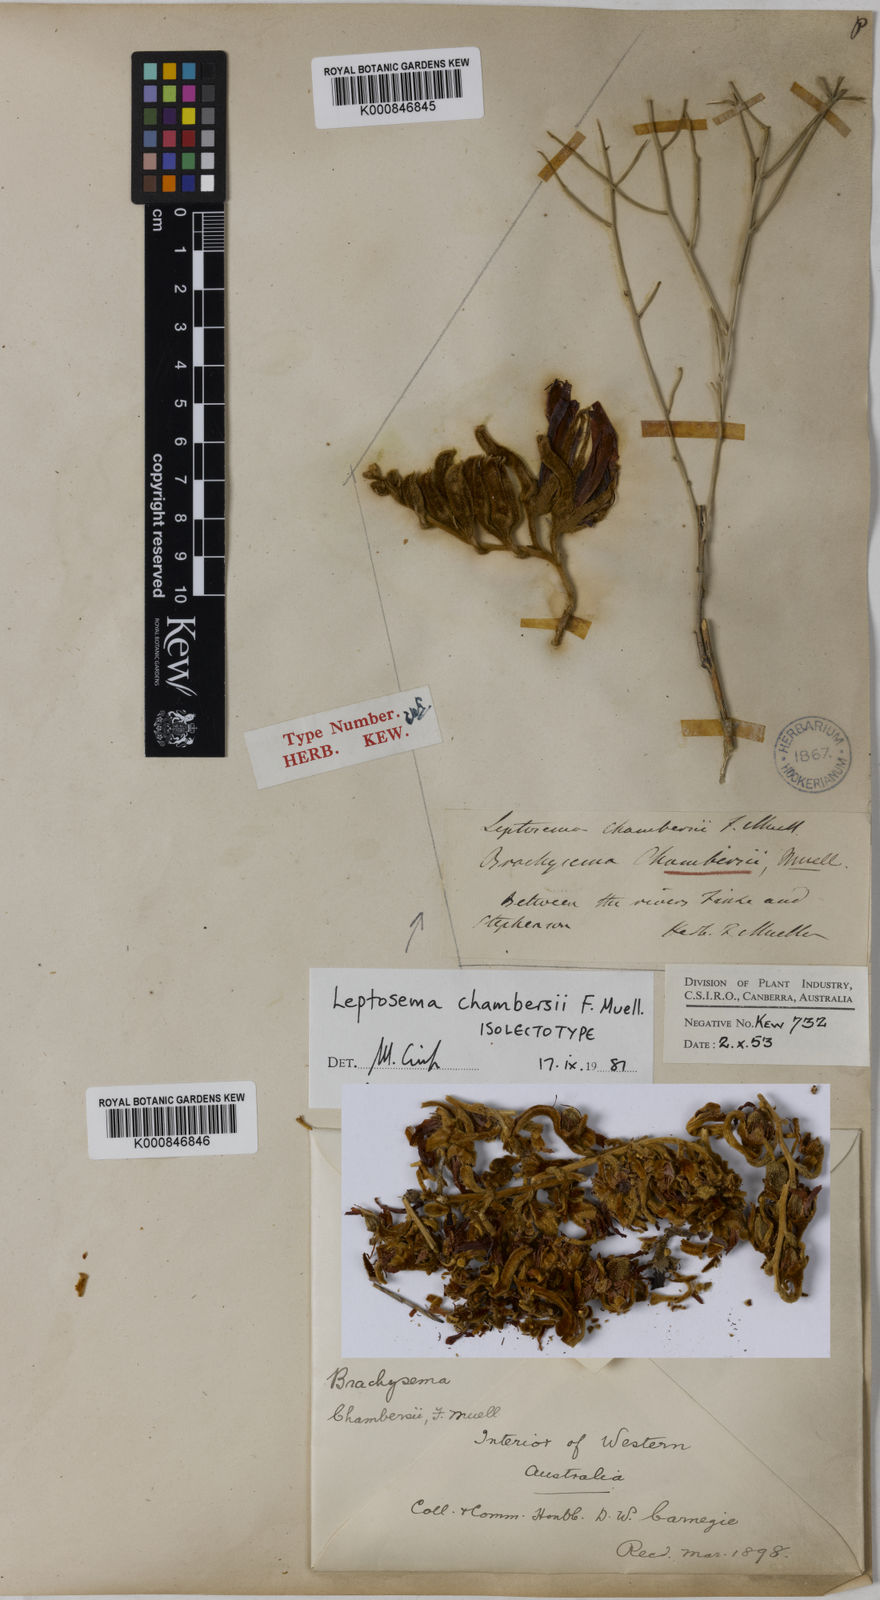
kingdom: Plantae
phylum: Tracheophyta
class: Magnoliopsida
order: Fabales
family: Fabaceae
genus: Leptosema
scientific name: Leptosema chambersii
